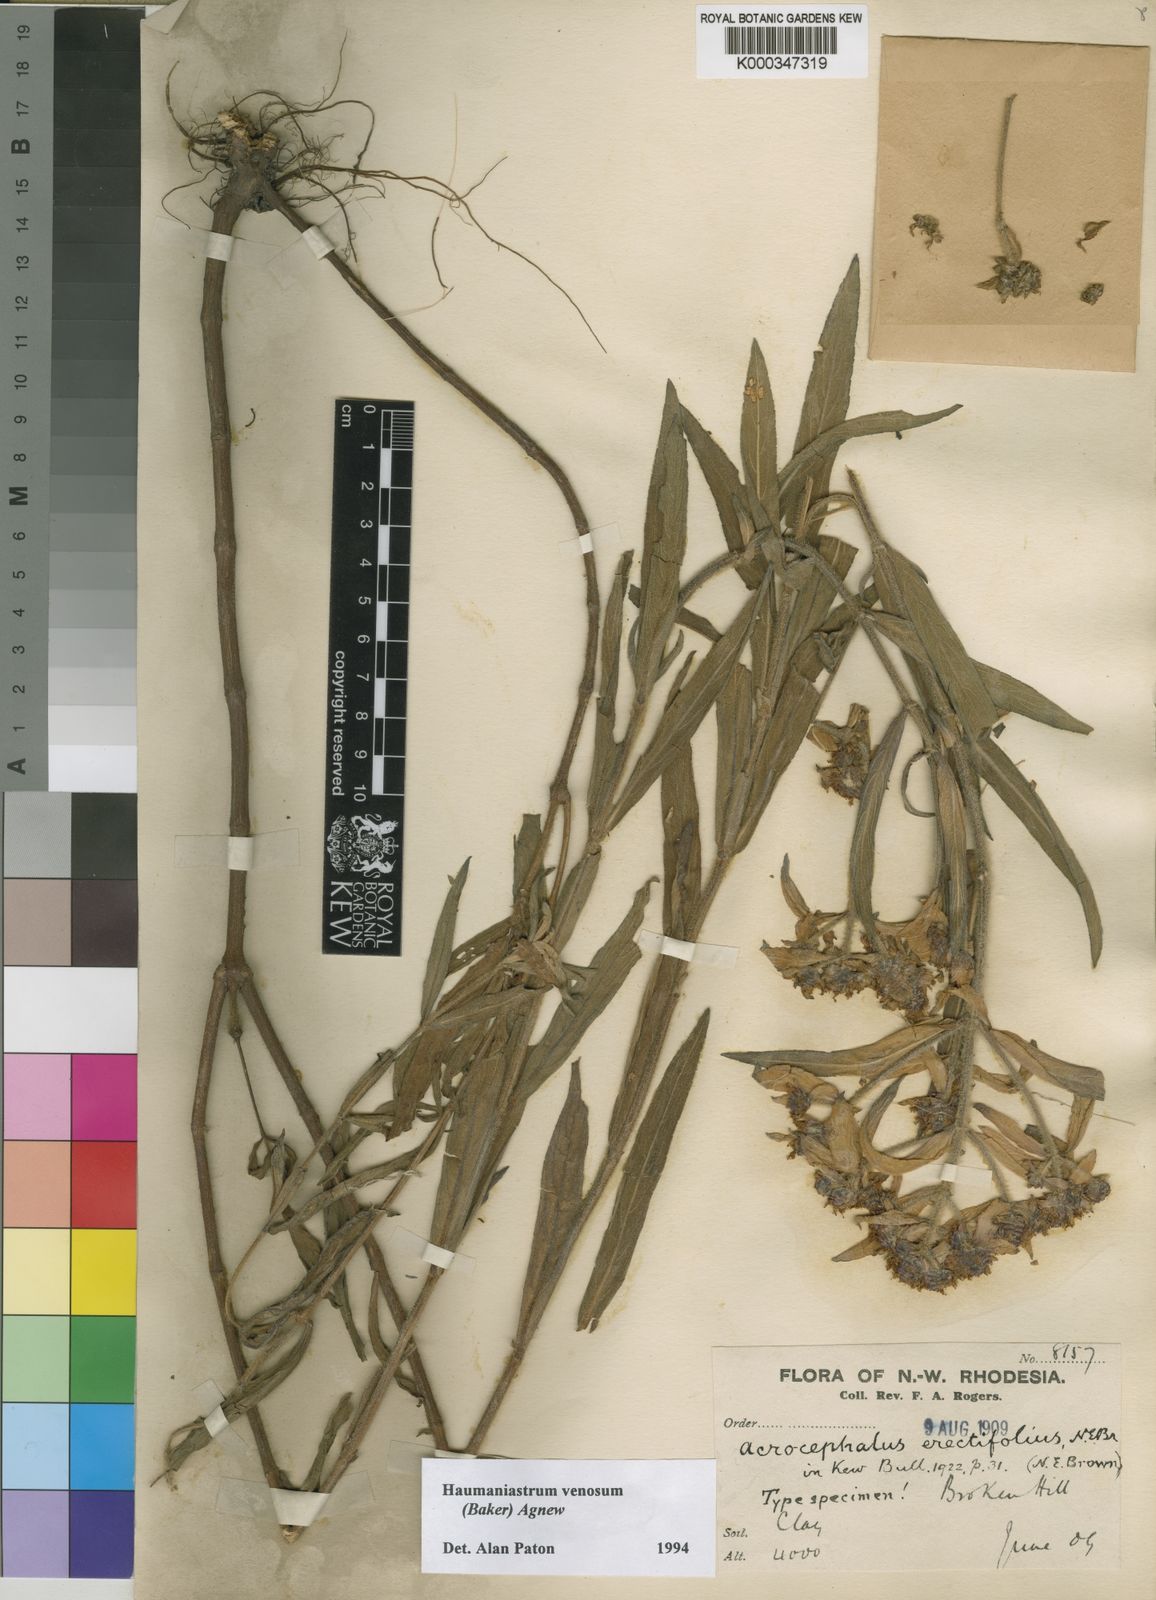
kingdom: Plantae
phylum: Tracheophyta
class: Magnoliopsida
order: Lamiales
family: Lamiaceae
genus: Haumaniastrum
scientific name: Haumaniastrum venosum
